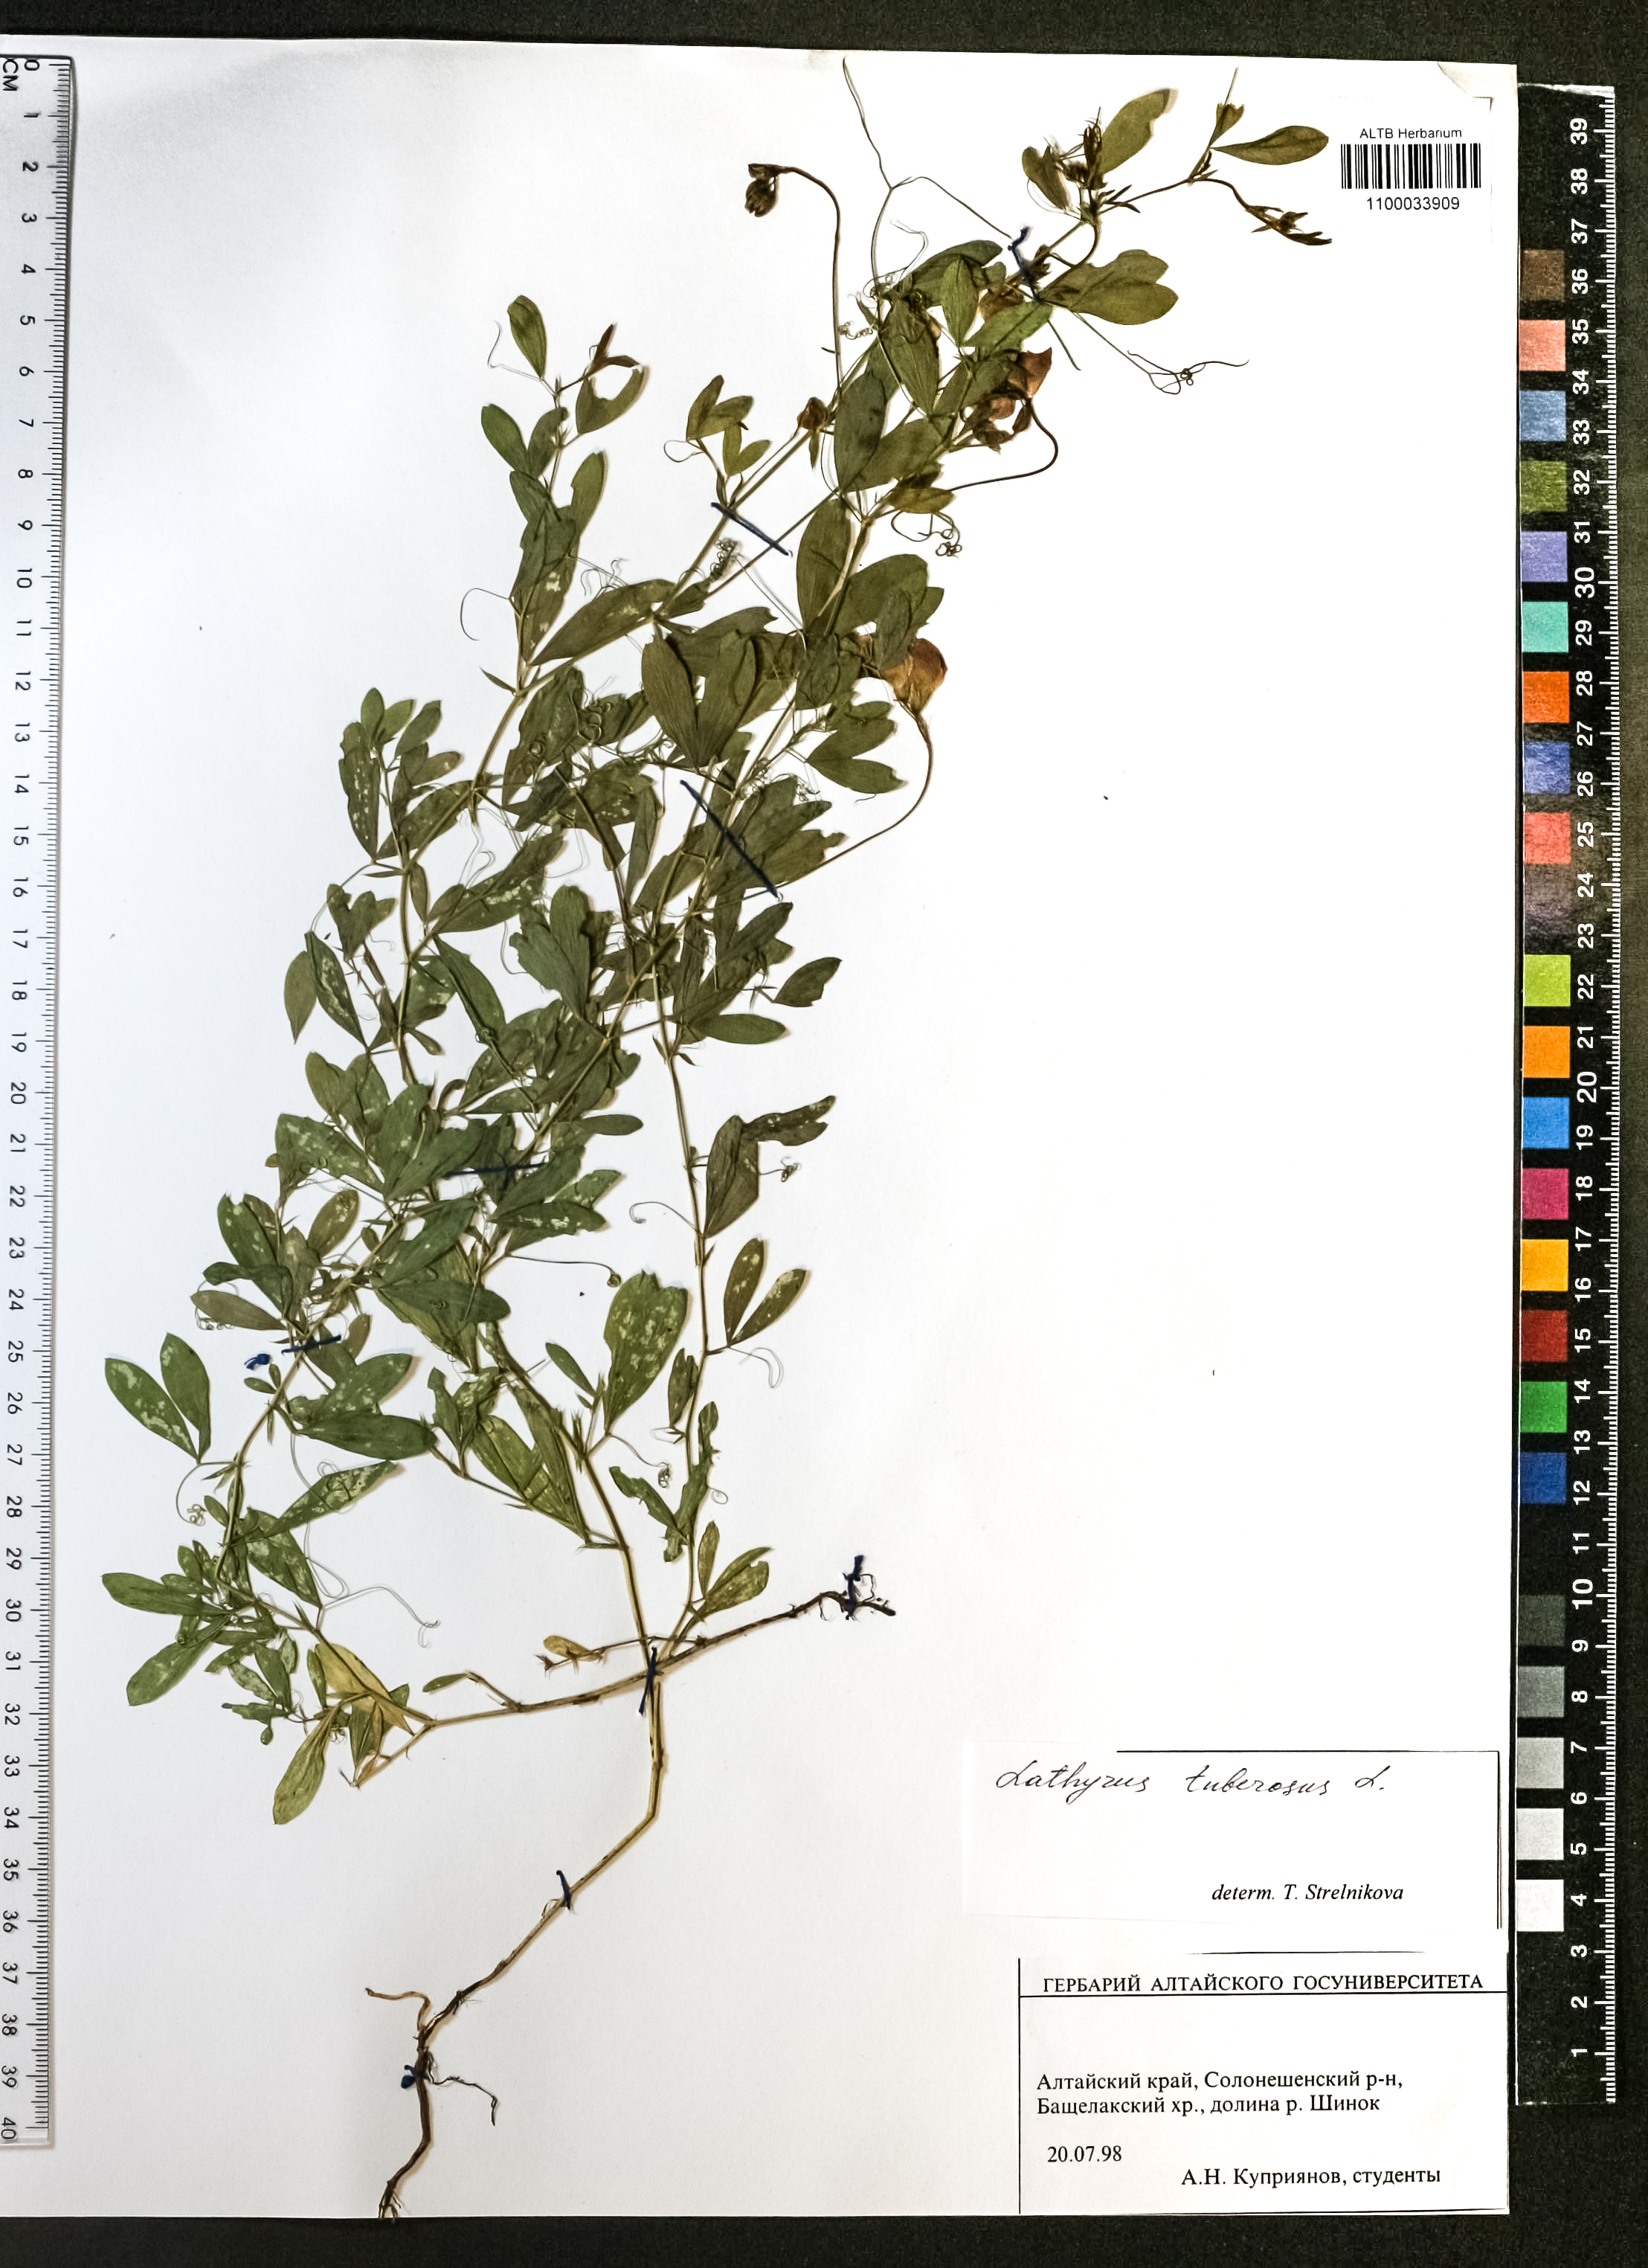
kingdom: Plantae
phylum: Tracheophyta
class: Magnoliopsida
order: Fabales
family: Fabaceae
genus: Lathyrus
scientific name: Lathyrus tuberosus
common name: Tuberous pea
